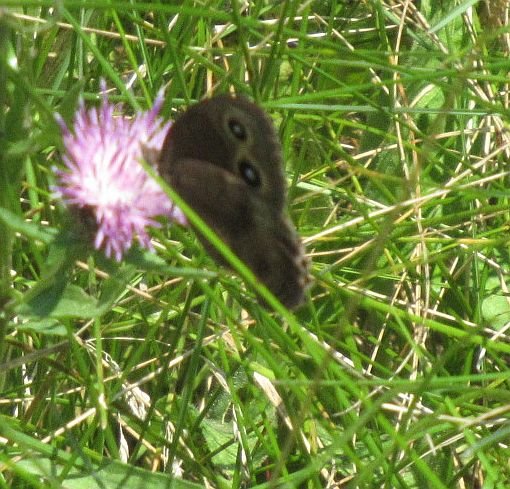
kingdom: Animalia
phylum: Arthropoda
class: Insecta
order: Lepidoptera
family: Nymphalidae
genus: Cercyonis
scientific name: Cercyonis pegala
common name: Common Wood-Nymph
